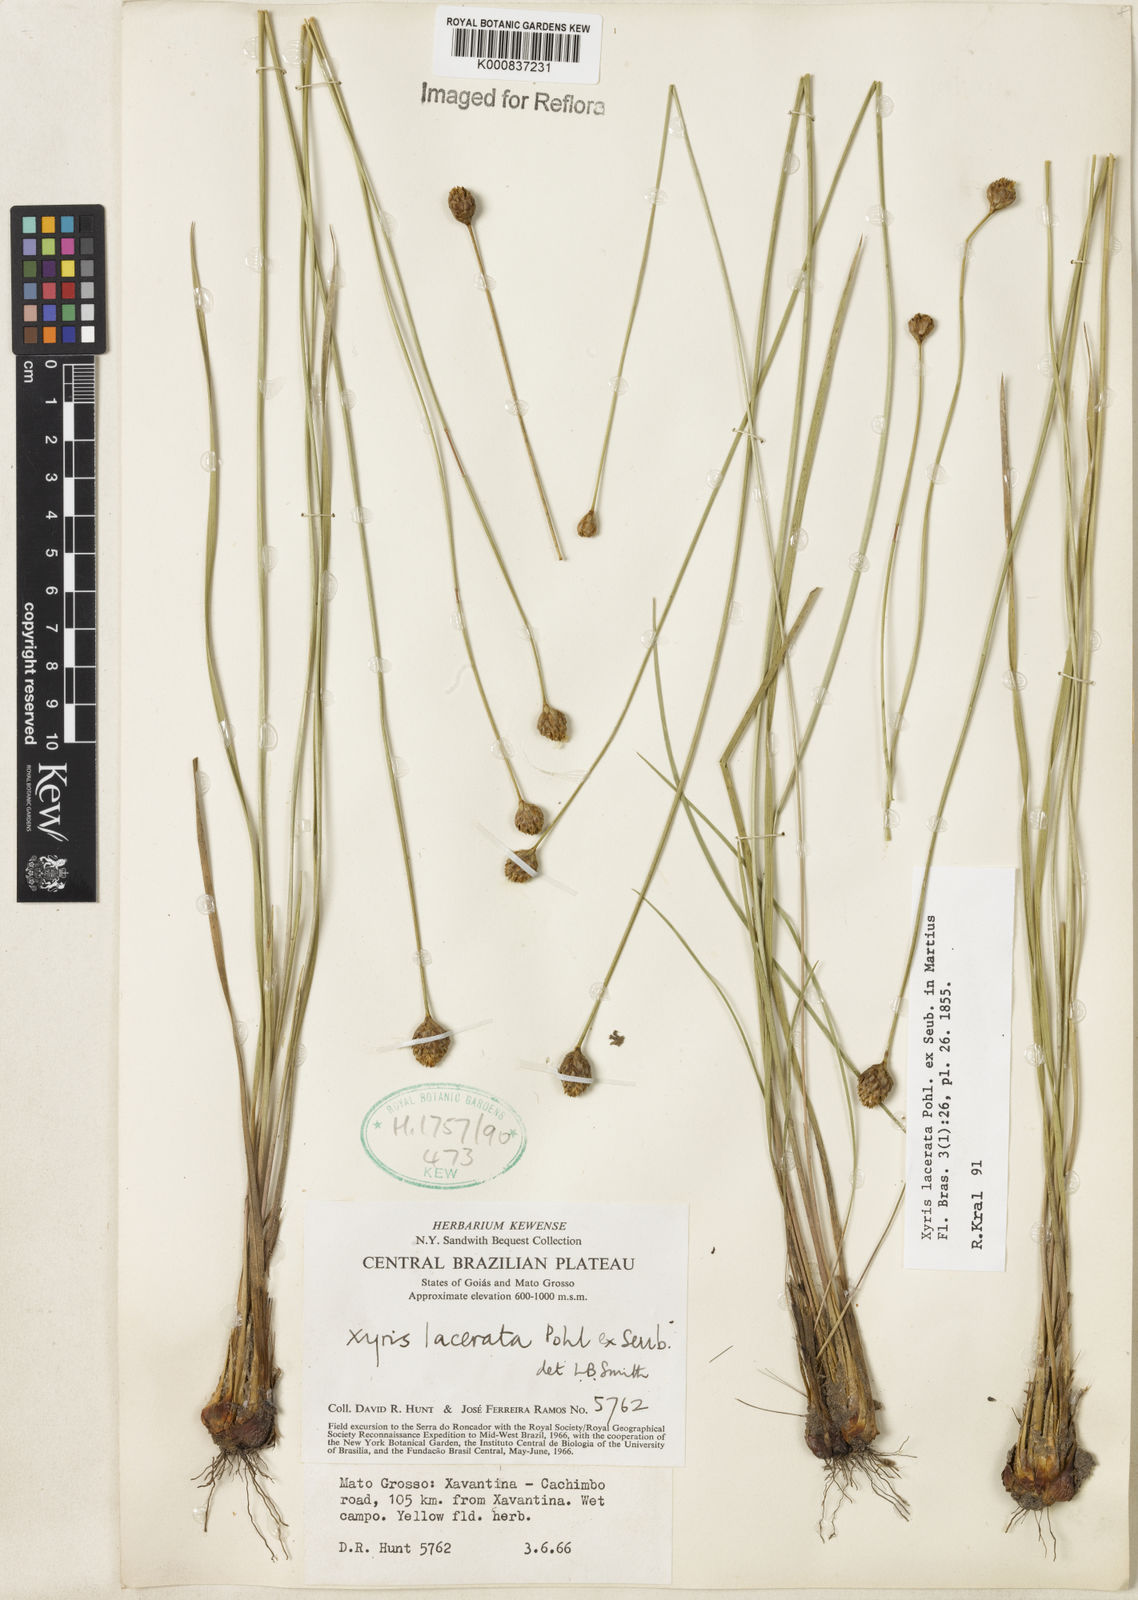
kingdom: Plantae
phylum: Tracheophyta
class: Liliopsida
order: Poales
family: Xyridaceae
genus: Xyris
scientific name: Xyris lacerata
